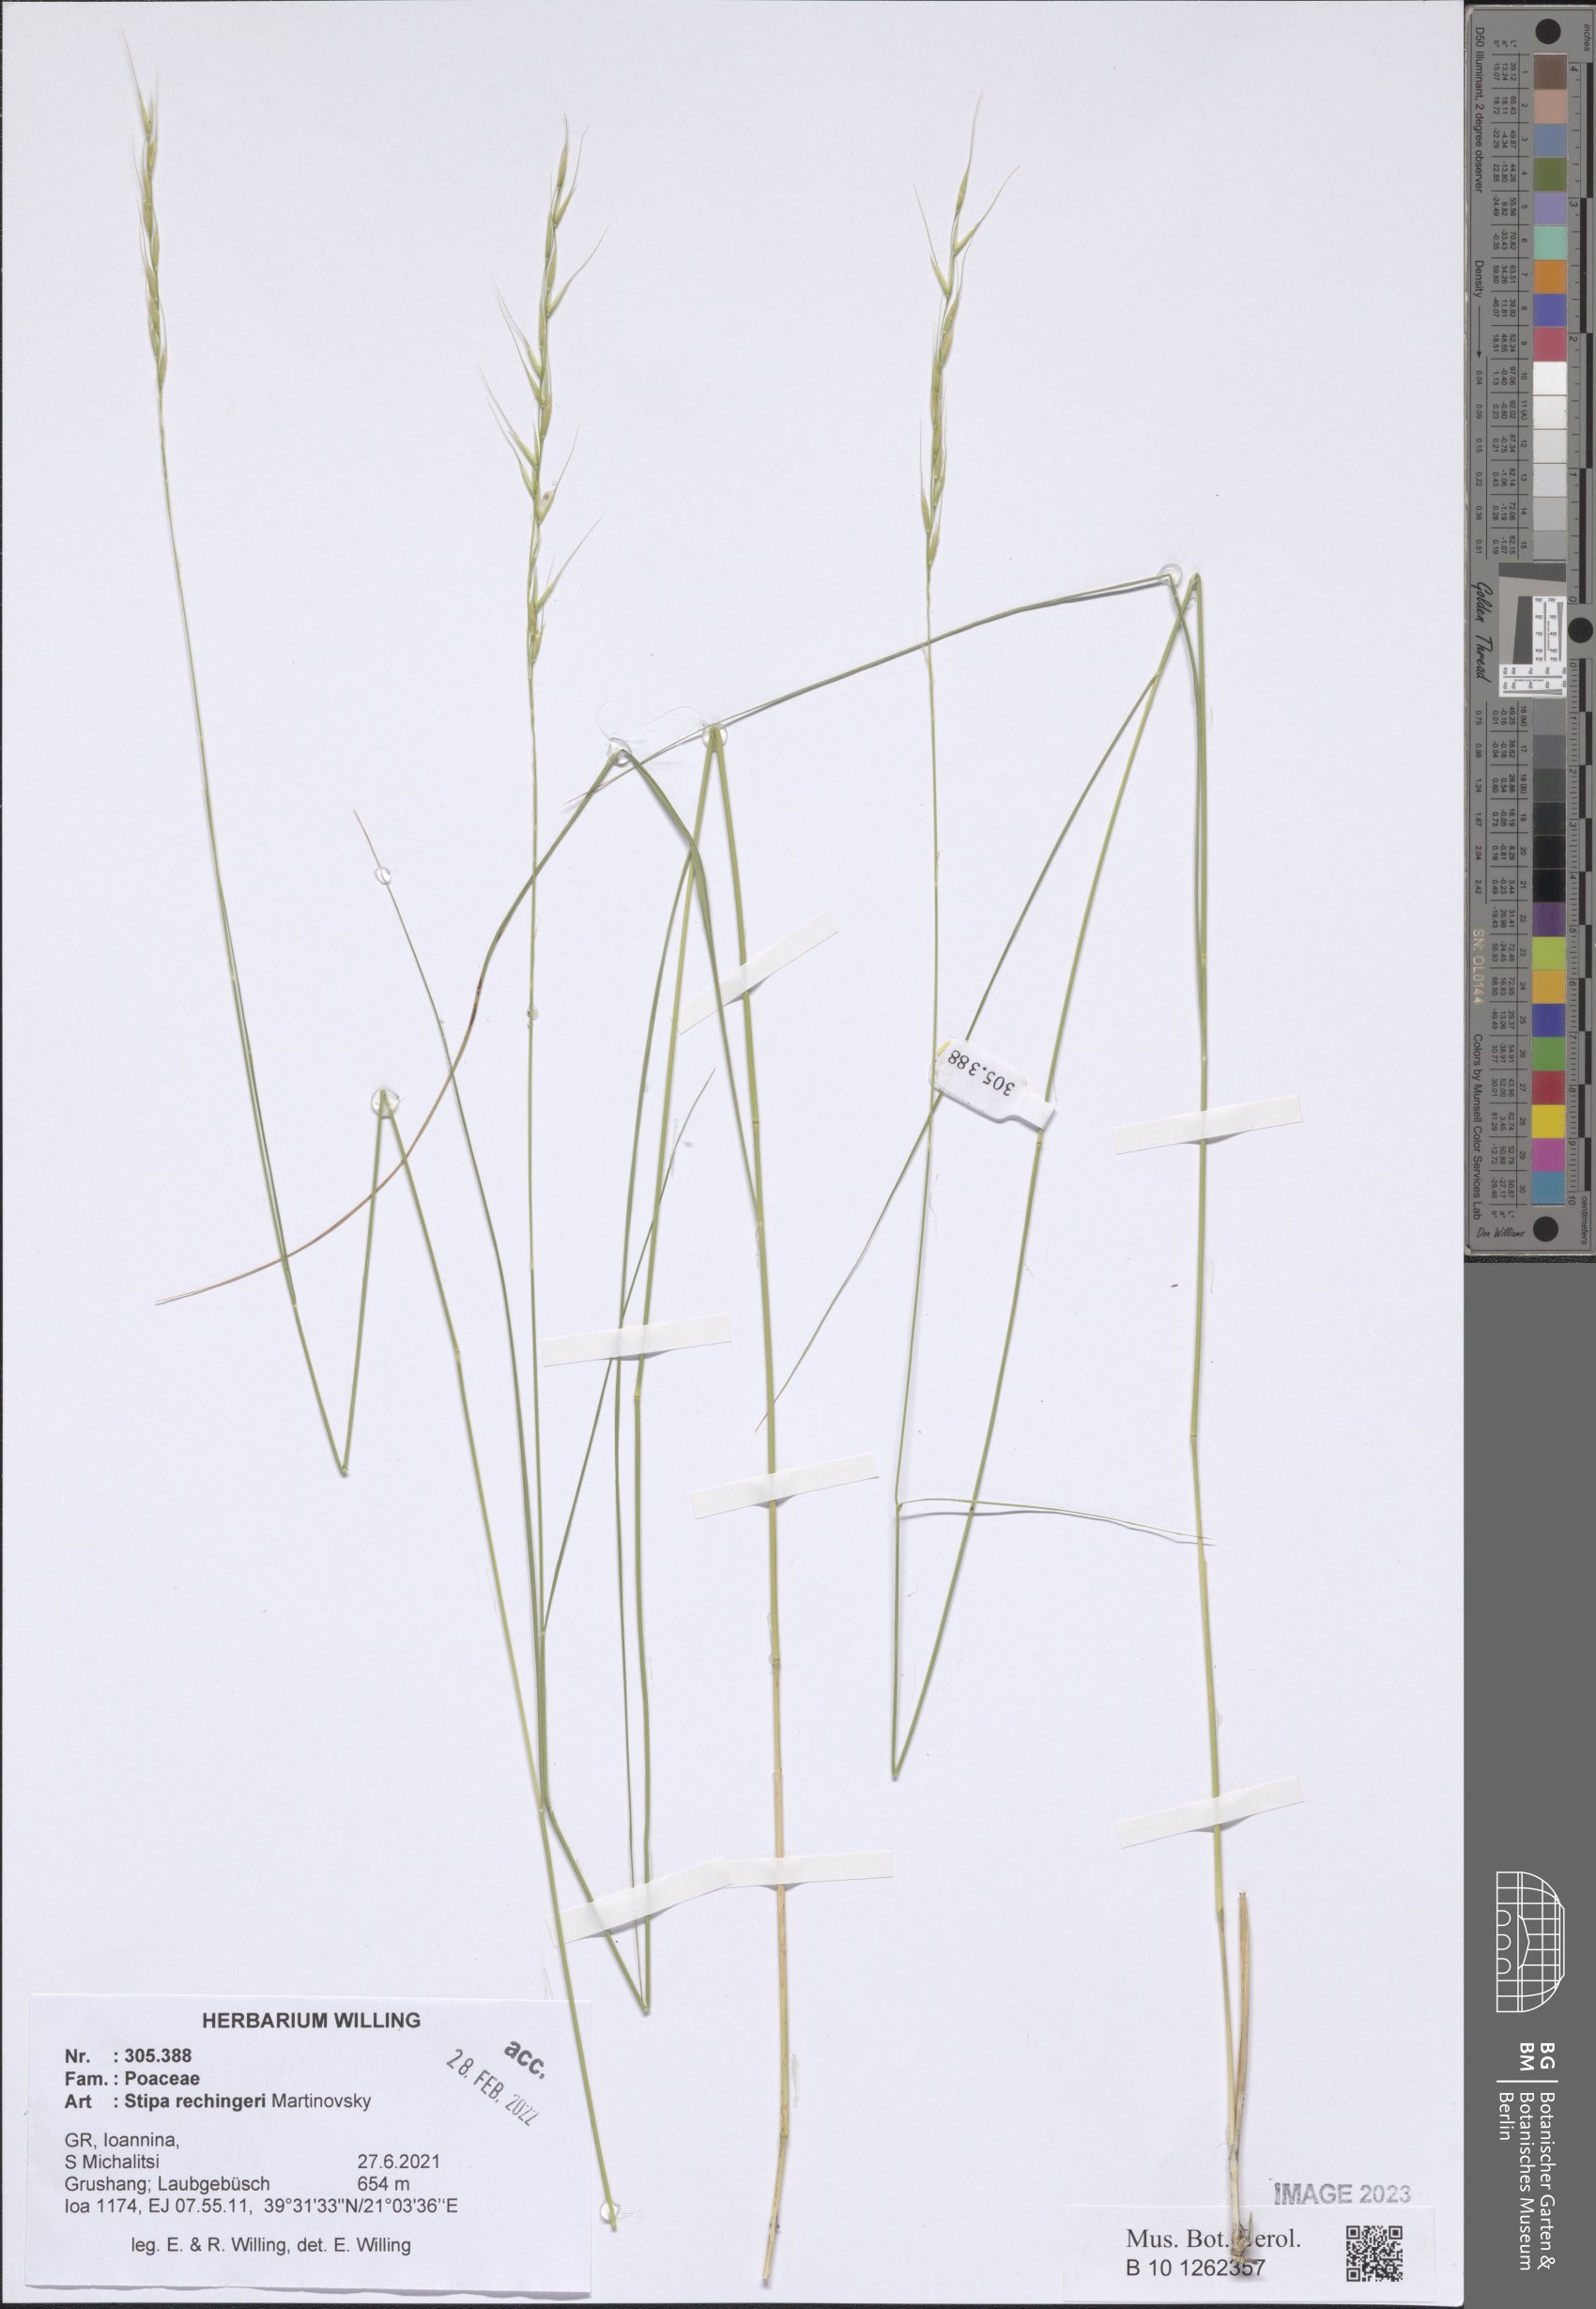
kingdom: Plantae
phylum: Tracheophyta
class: Liliopsida
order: Poales
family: Poaceae
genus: Stipa
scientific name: Stipa rechingeri
